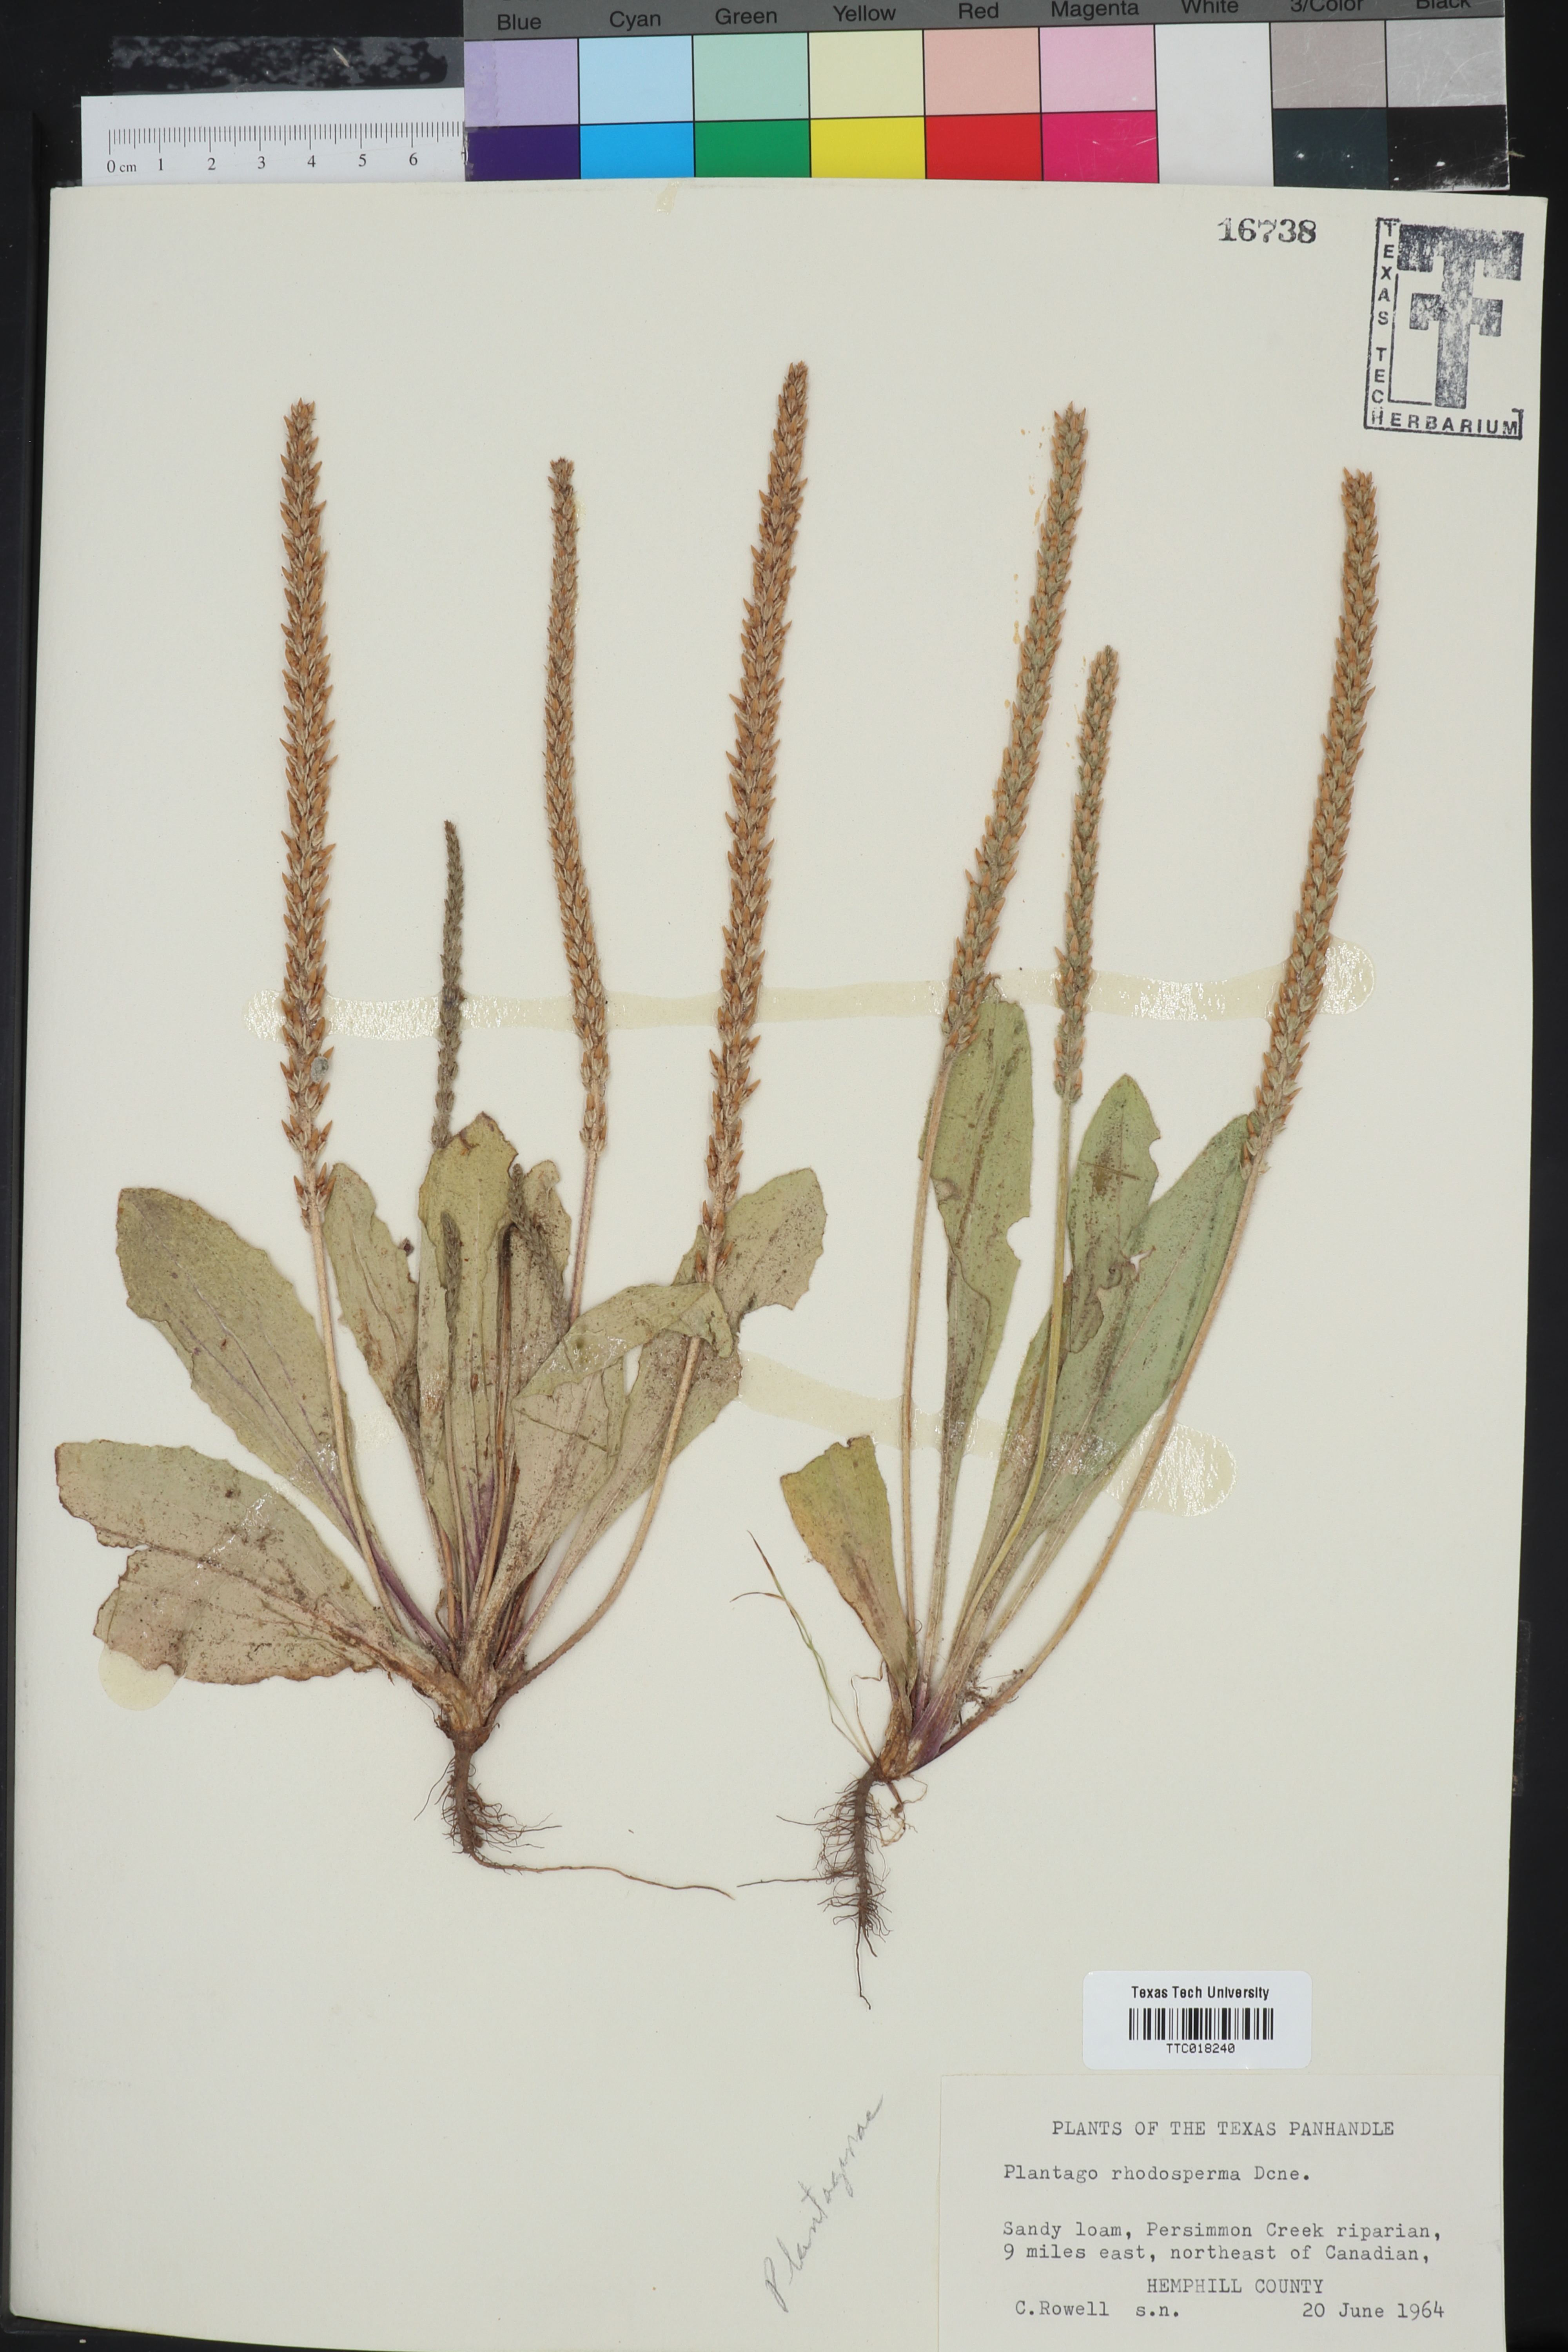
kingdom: Plantae
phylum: Tracheophyta
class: Magnoliopsida
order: Lamiales
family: Plantaginaceae
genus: Plantago
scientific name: Plantago rhodosperma
